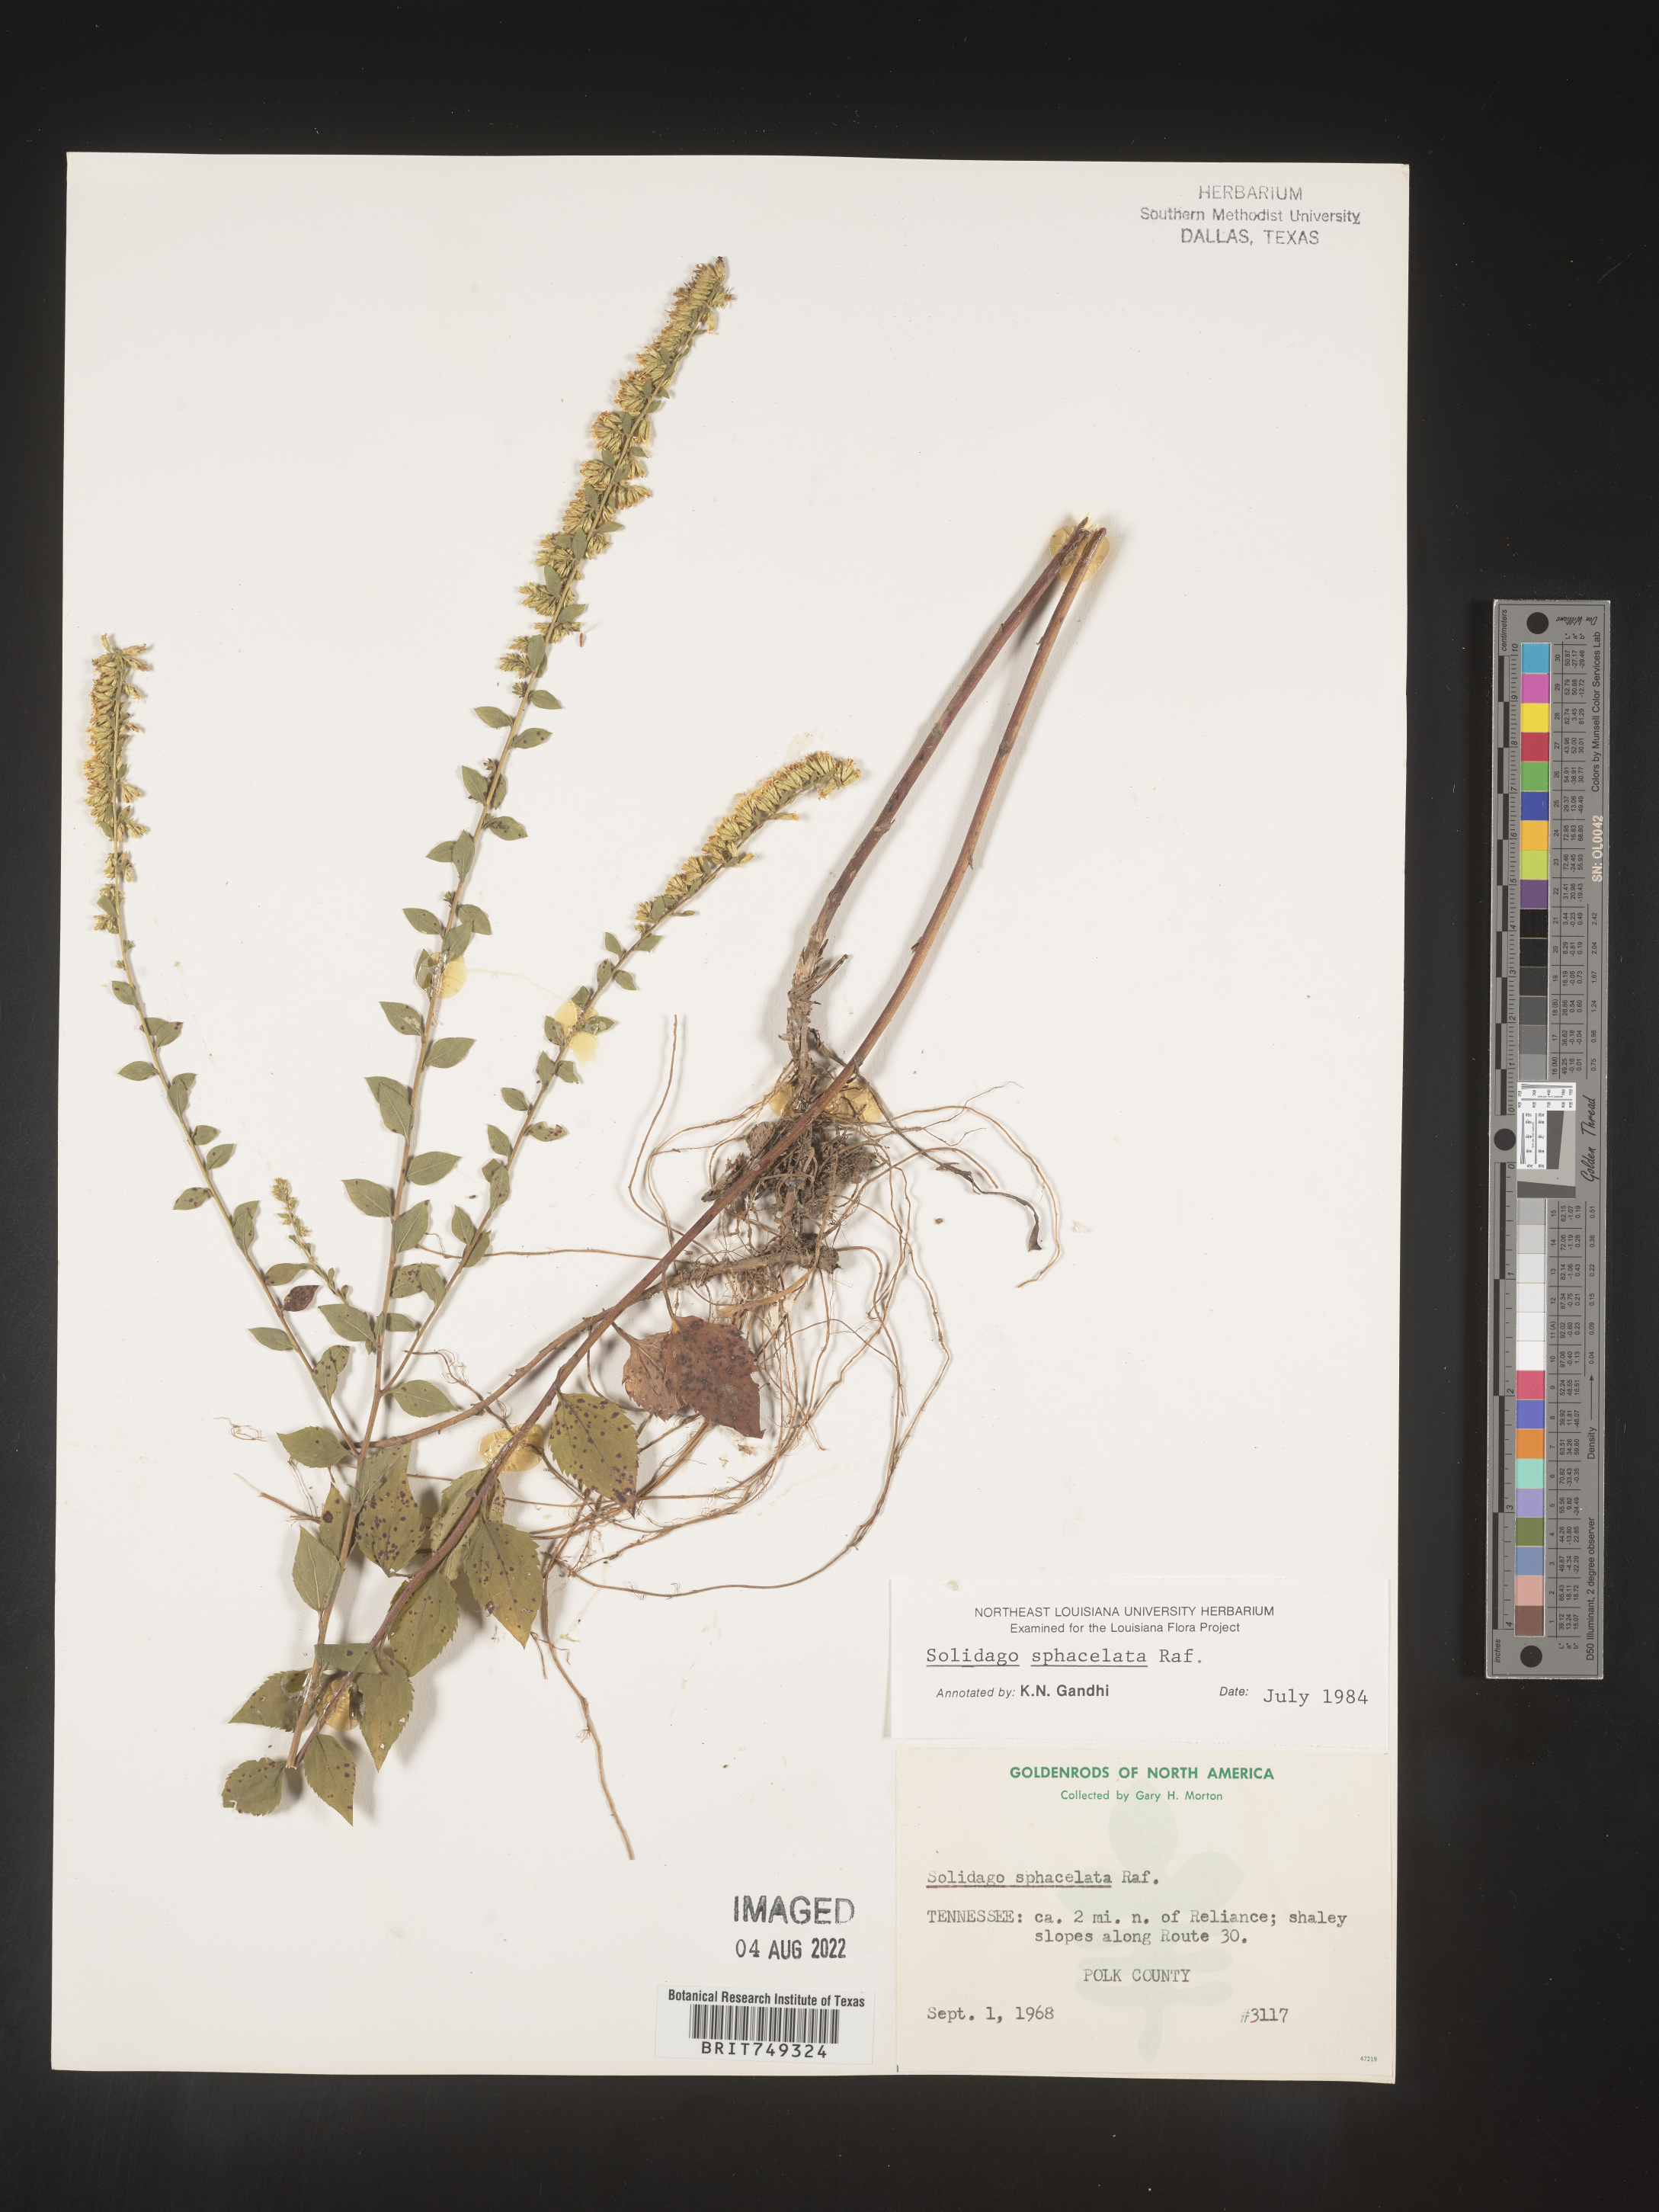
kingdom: Plantae
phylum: Tracheophyta
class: Magnoliopsida
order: Asterales
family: Asteraceae
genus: Solidago
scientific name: Solidago sphacelata
